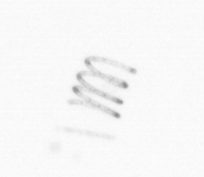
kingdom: Chromista
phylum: Ochrophyta
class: Bacillariophyceae
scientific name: Bacillariophyceae
